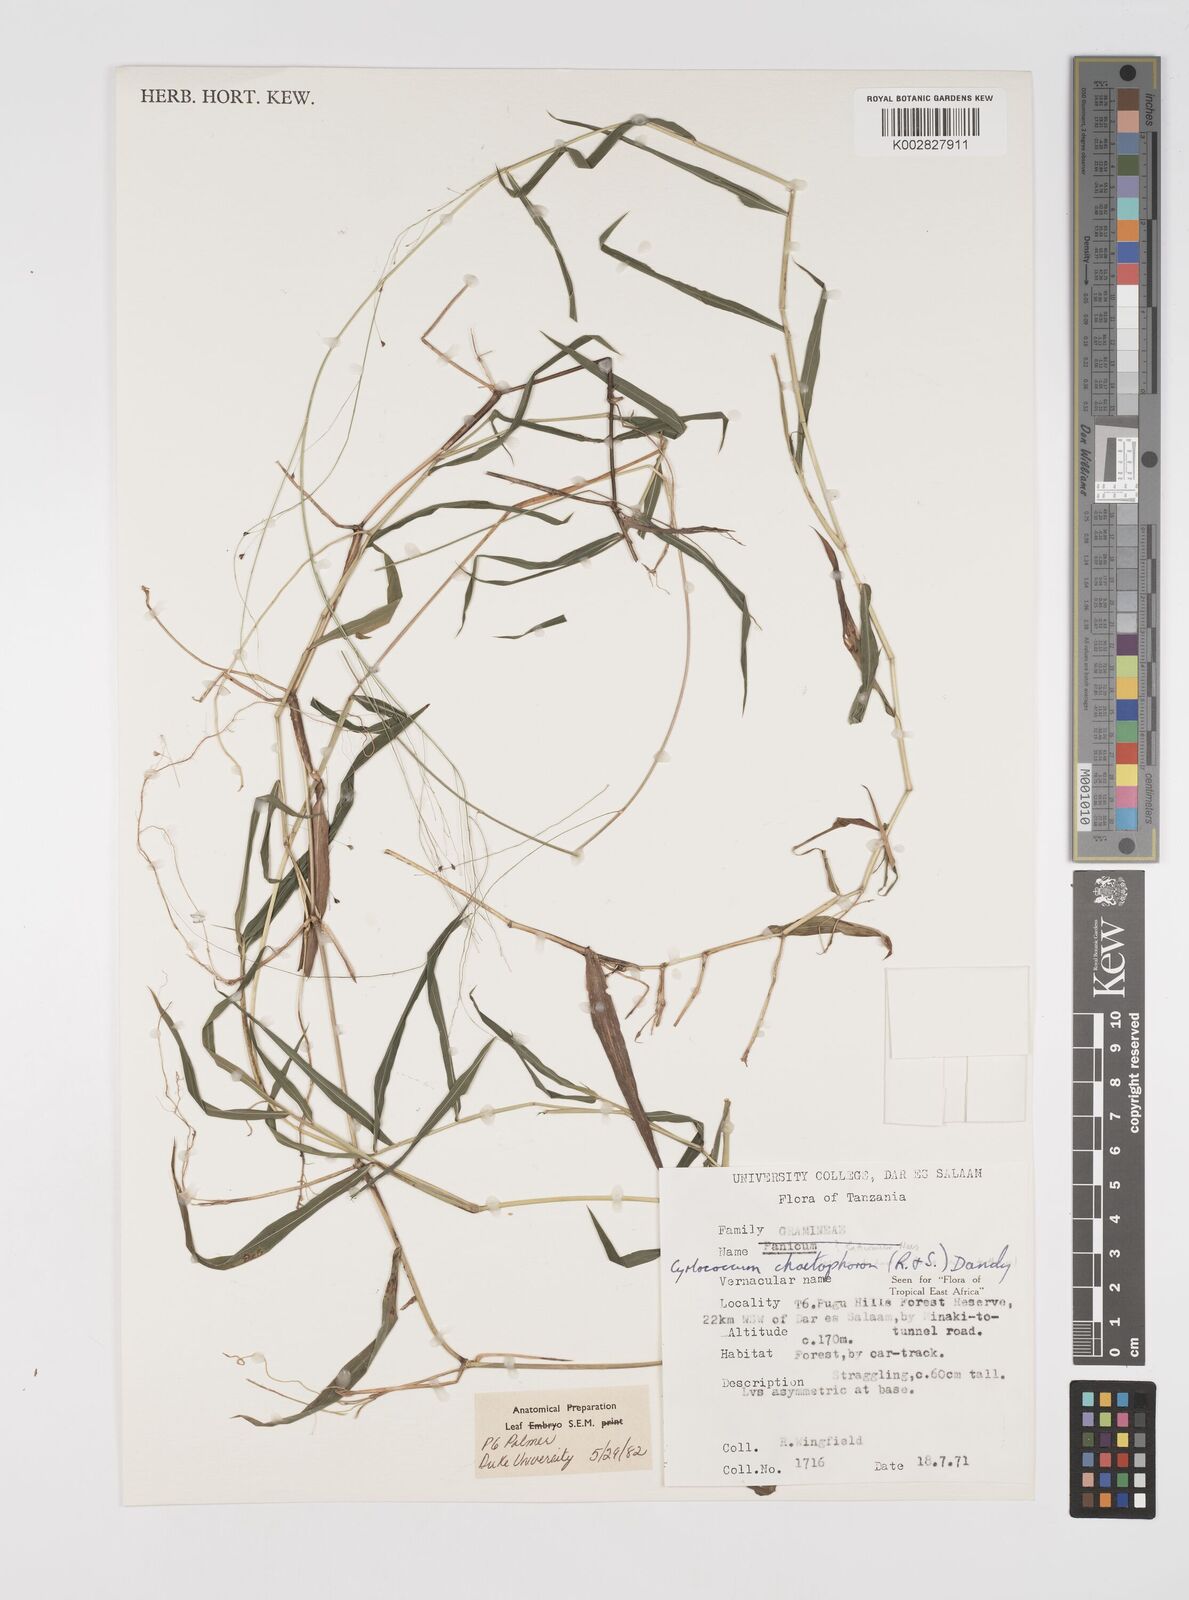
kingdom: Plantae
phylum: Tracheophyta
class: Liliopsida
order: Poales
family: Poaceae
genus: Cyrtococcum
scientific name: Cyrtococcum chaetophoron
